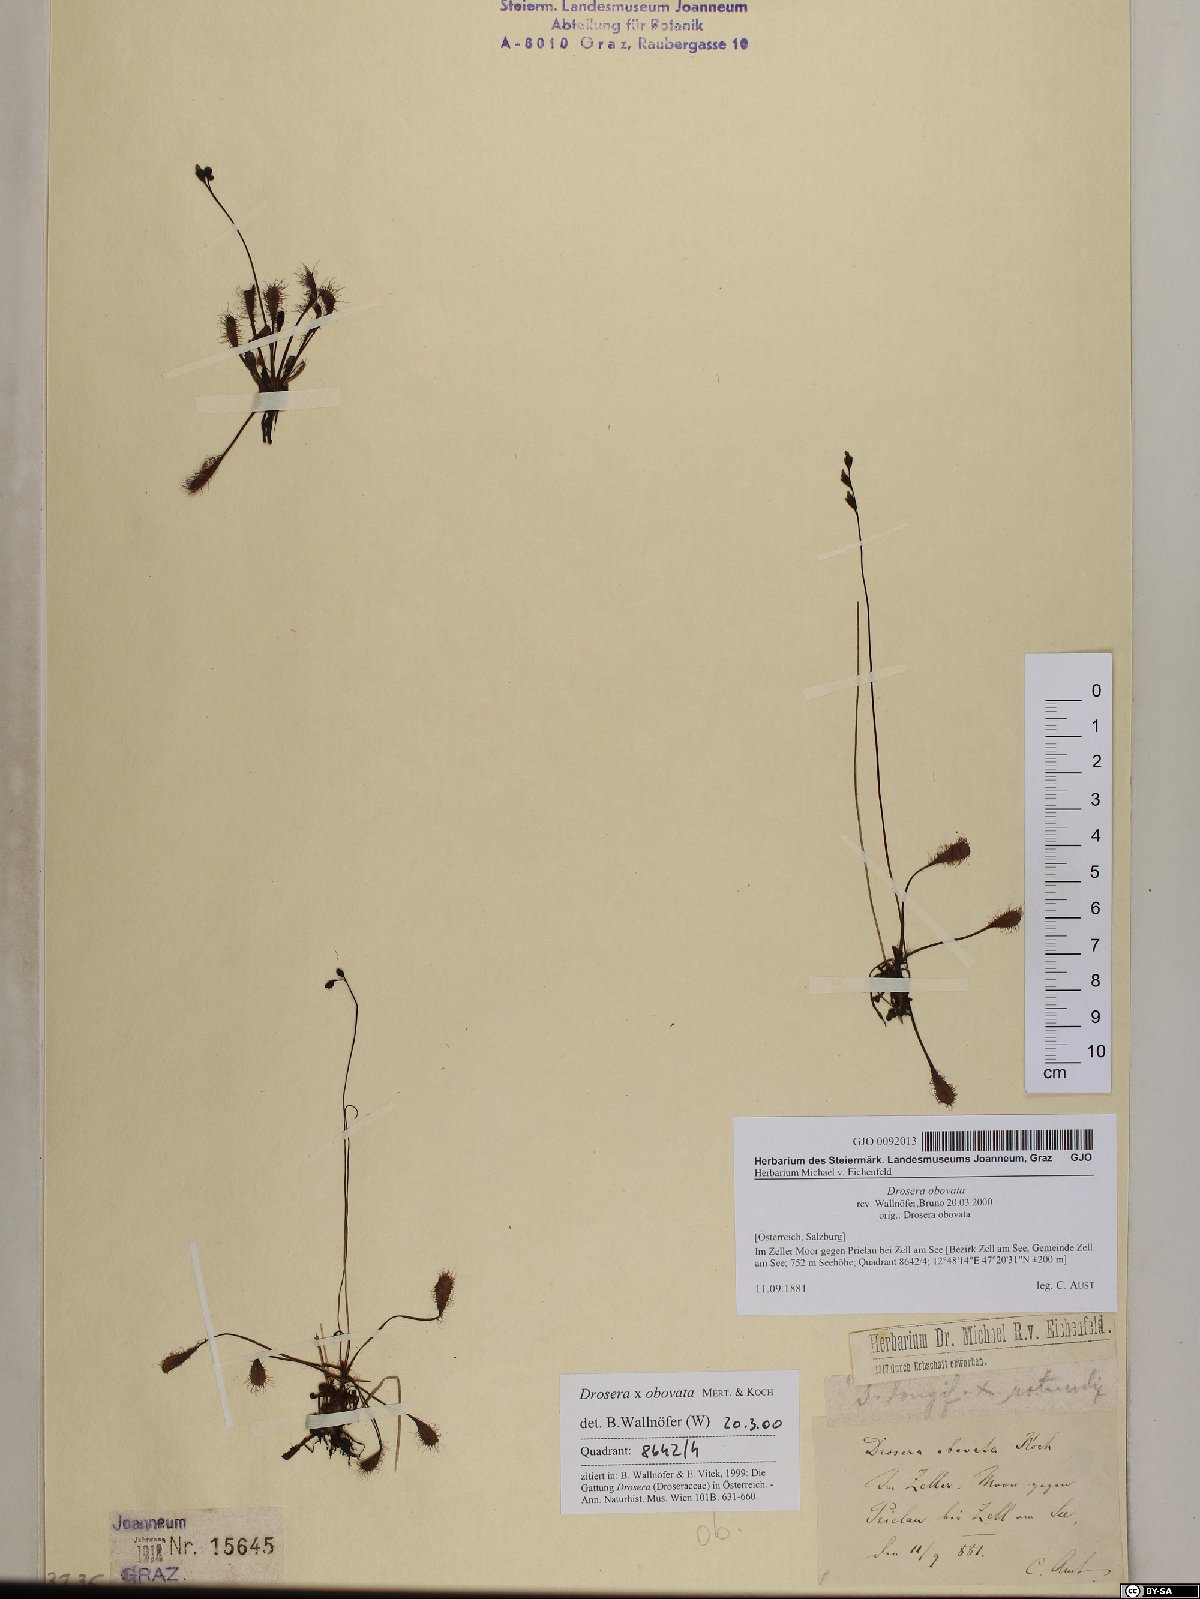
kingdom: Plantae
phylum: Tracheophyta
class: Magnoliopsida
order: Caryophyllales
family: Droseraceae
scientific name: Droseraceae
